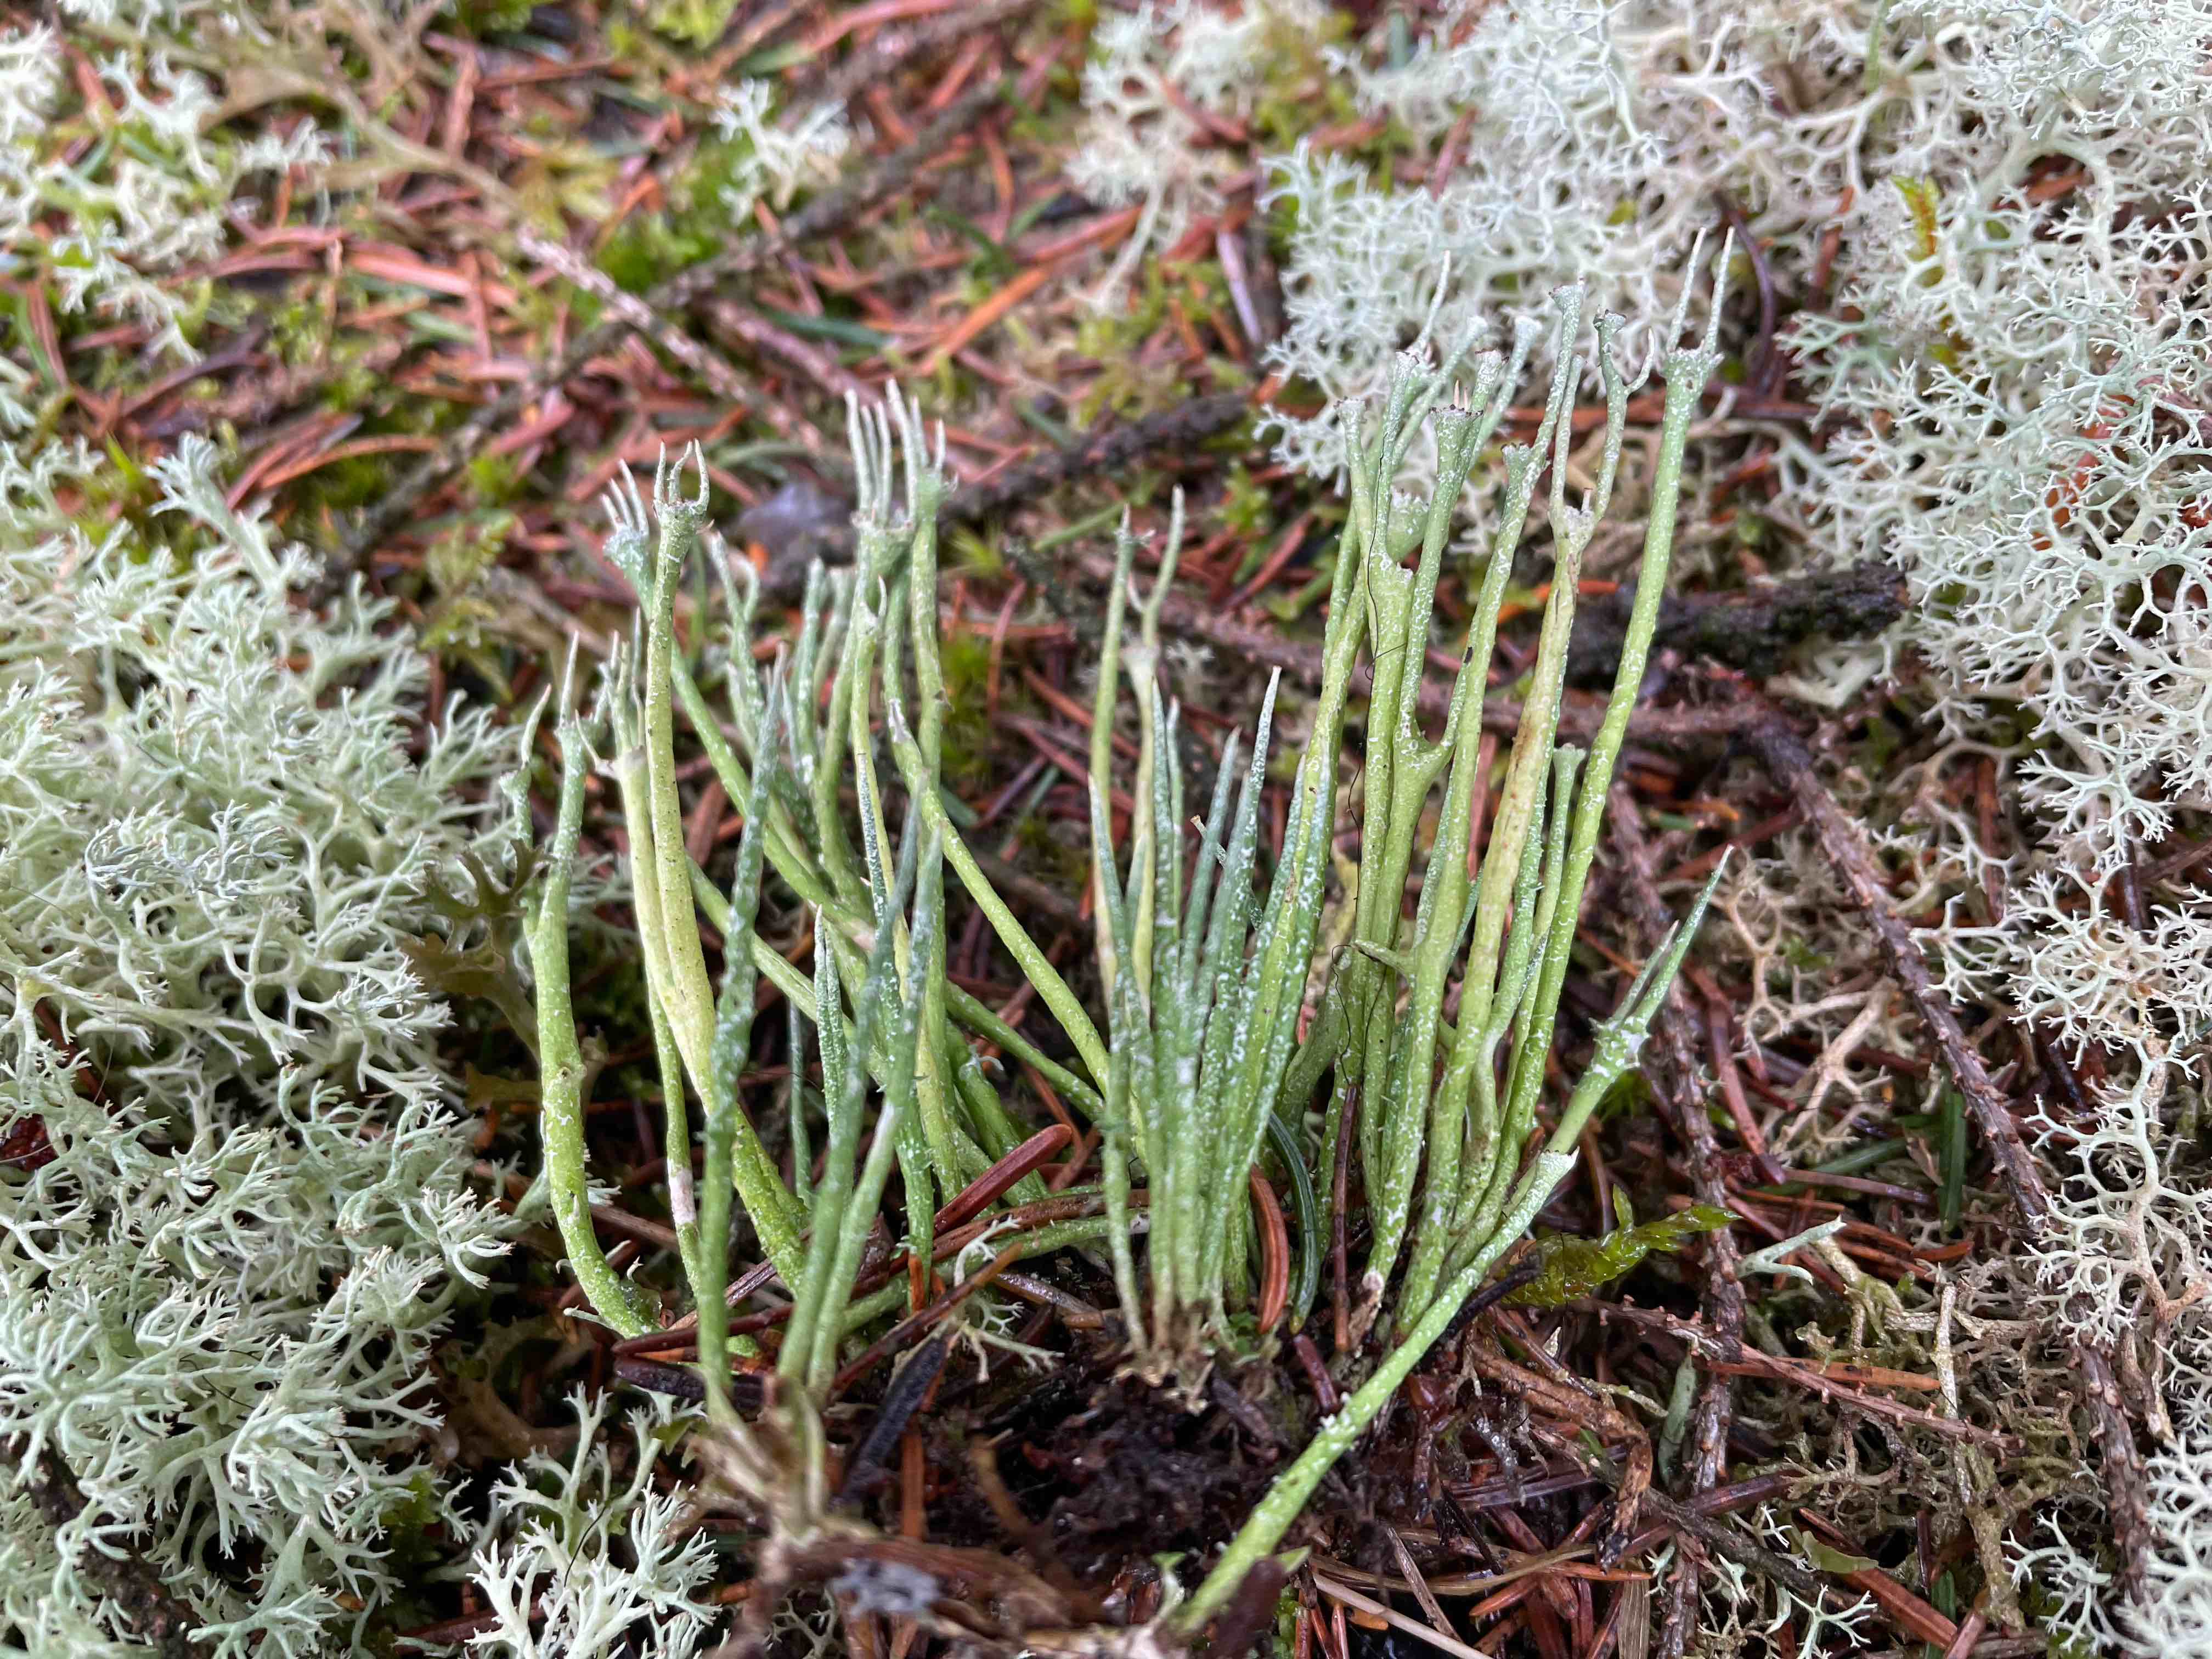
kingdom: Fungi
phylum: Ascomycota
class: Lecanoromycetes
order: Lecanorales
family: Cladoniaceae
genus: Cladonia
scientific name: Cladonia gracilis
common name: slank bægerlav
